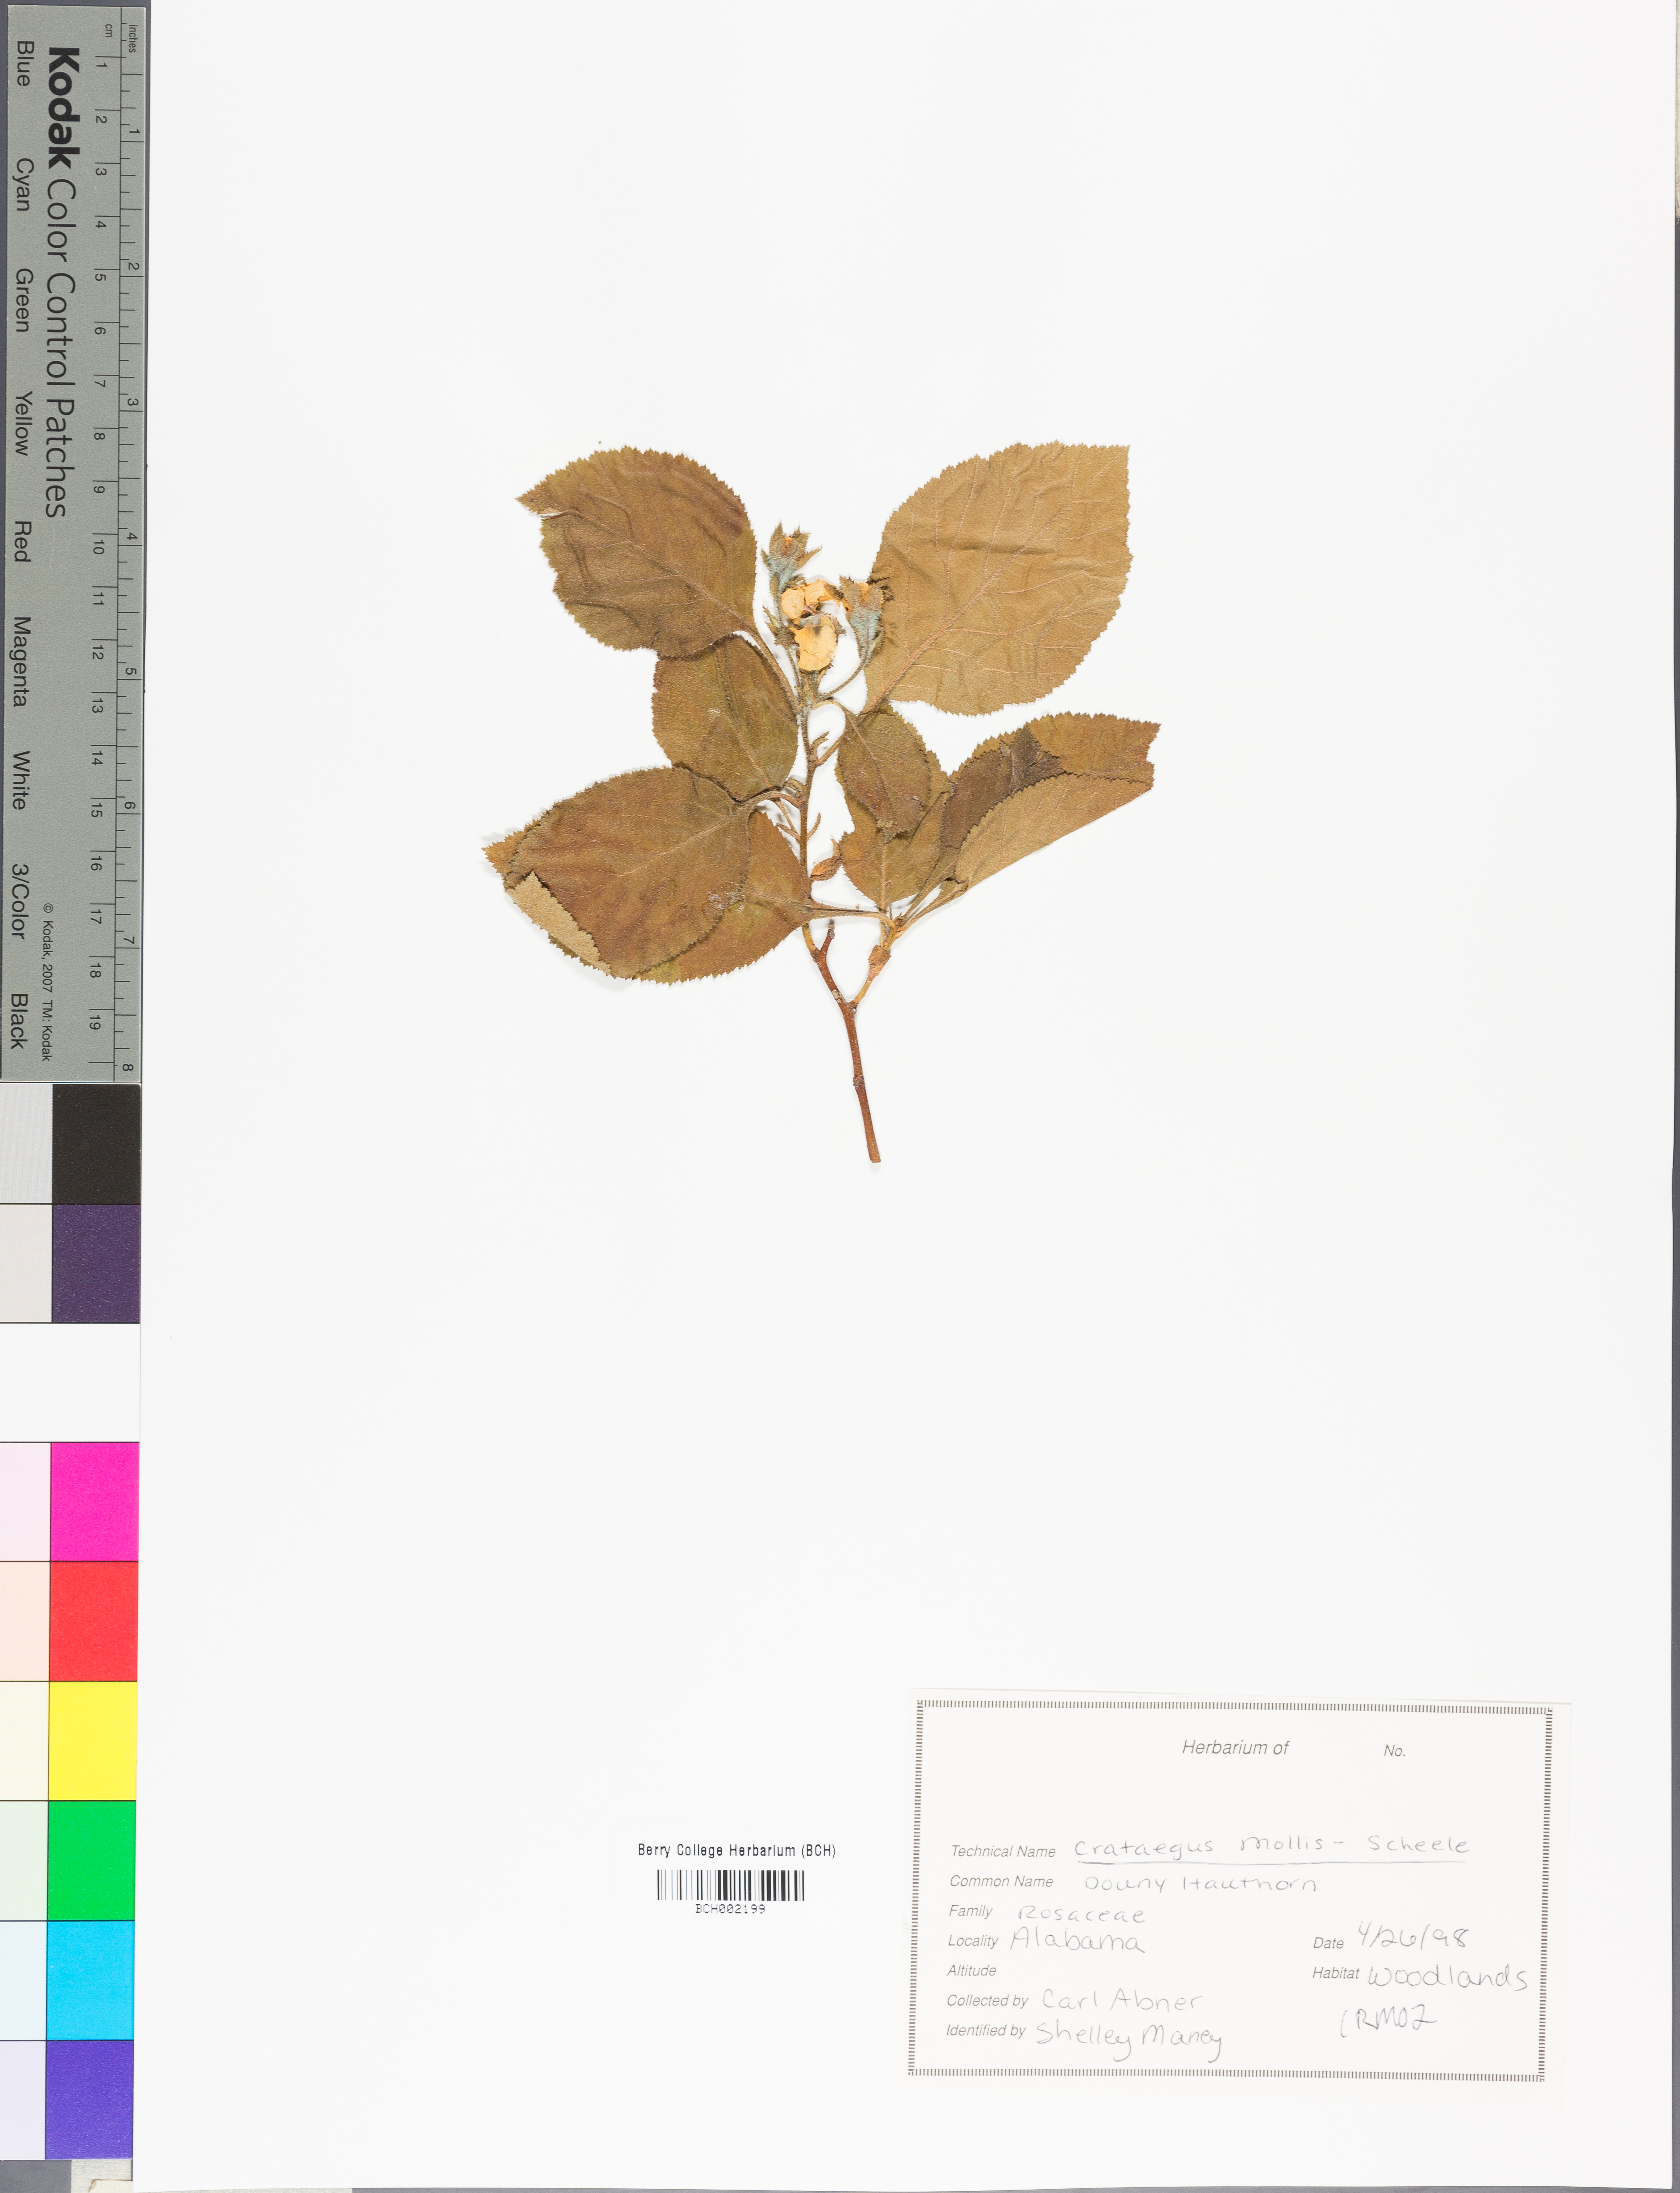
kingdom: Plantae
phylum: Tracheophyta
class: Magnoliopsida
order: Rosales
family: Rosaceae
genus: Crataegus
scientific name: Crataegus mollis
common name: Downy hawthorn
